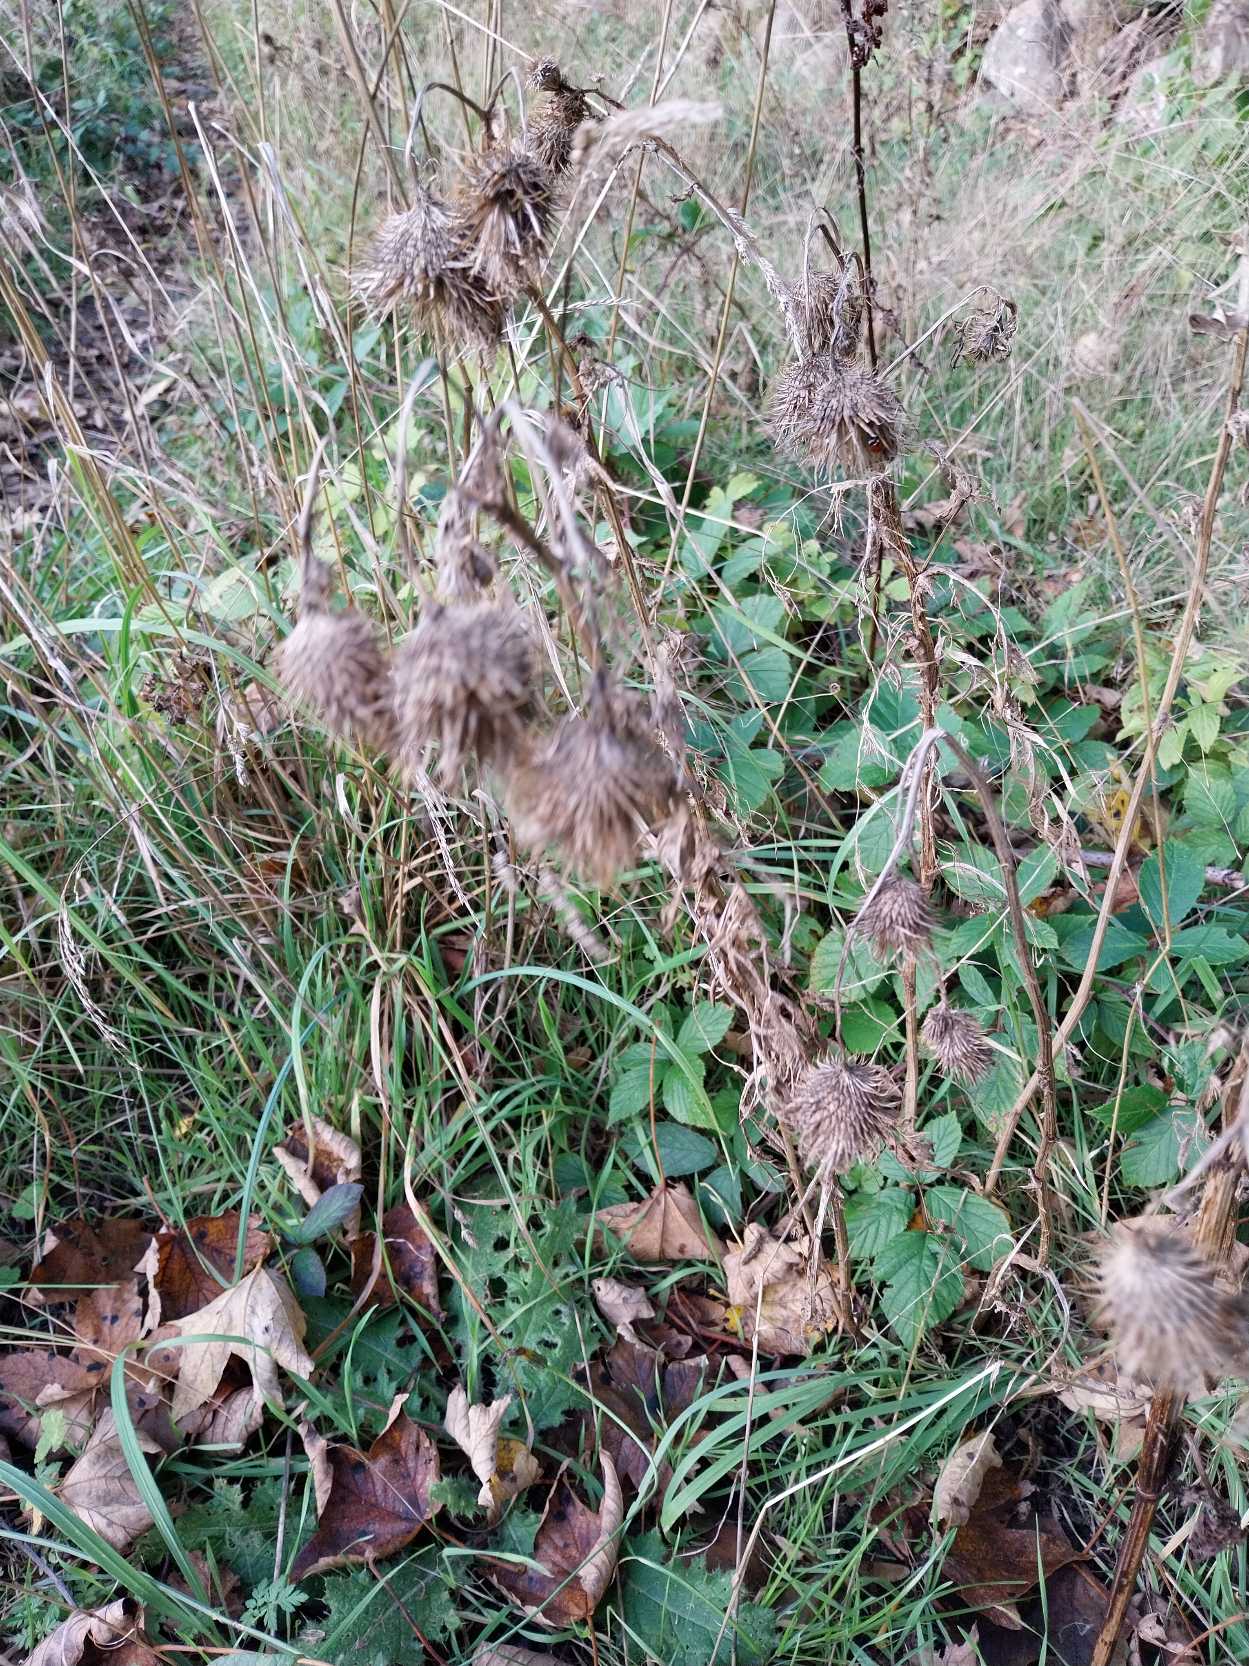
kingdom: Plantae
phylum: Tracheophyta
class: Magnoliopsida
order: Asterales
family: Asteraceae
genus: Cirsium
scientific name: Cirsium vulgare
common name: Horse-tidsel
